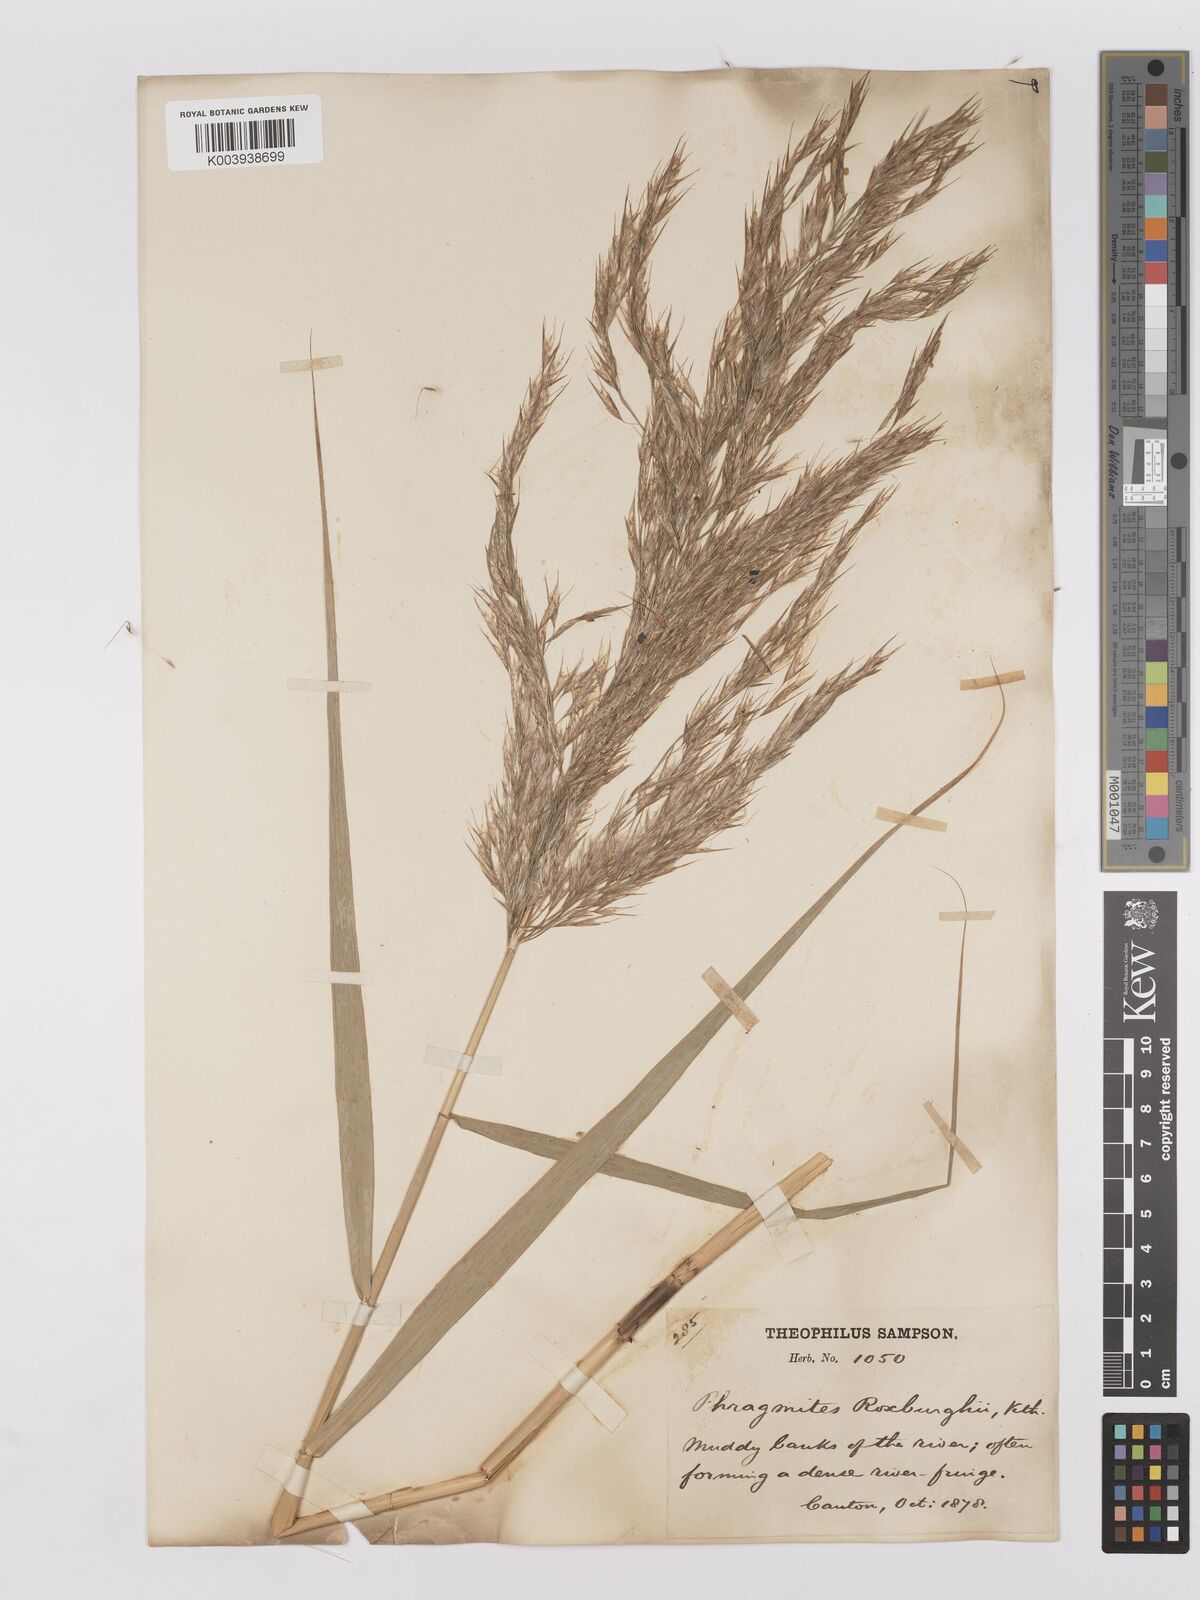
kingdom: Plantae
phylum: Tracheophyta
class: Liliopsida
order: Poales
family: Poaceae
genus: Phragmites
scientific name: Phragmites australis
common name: Common reed
